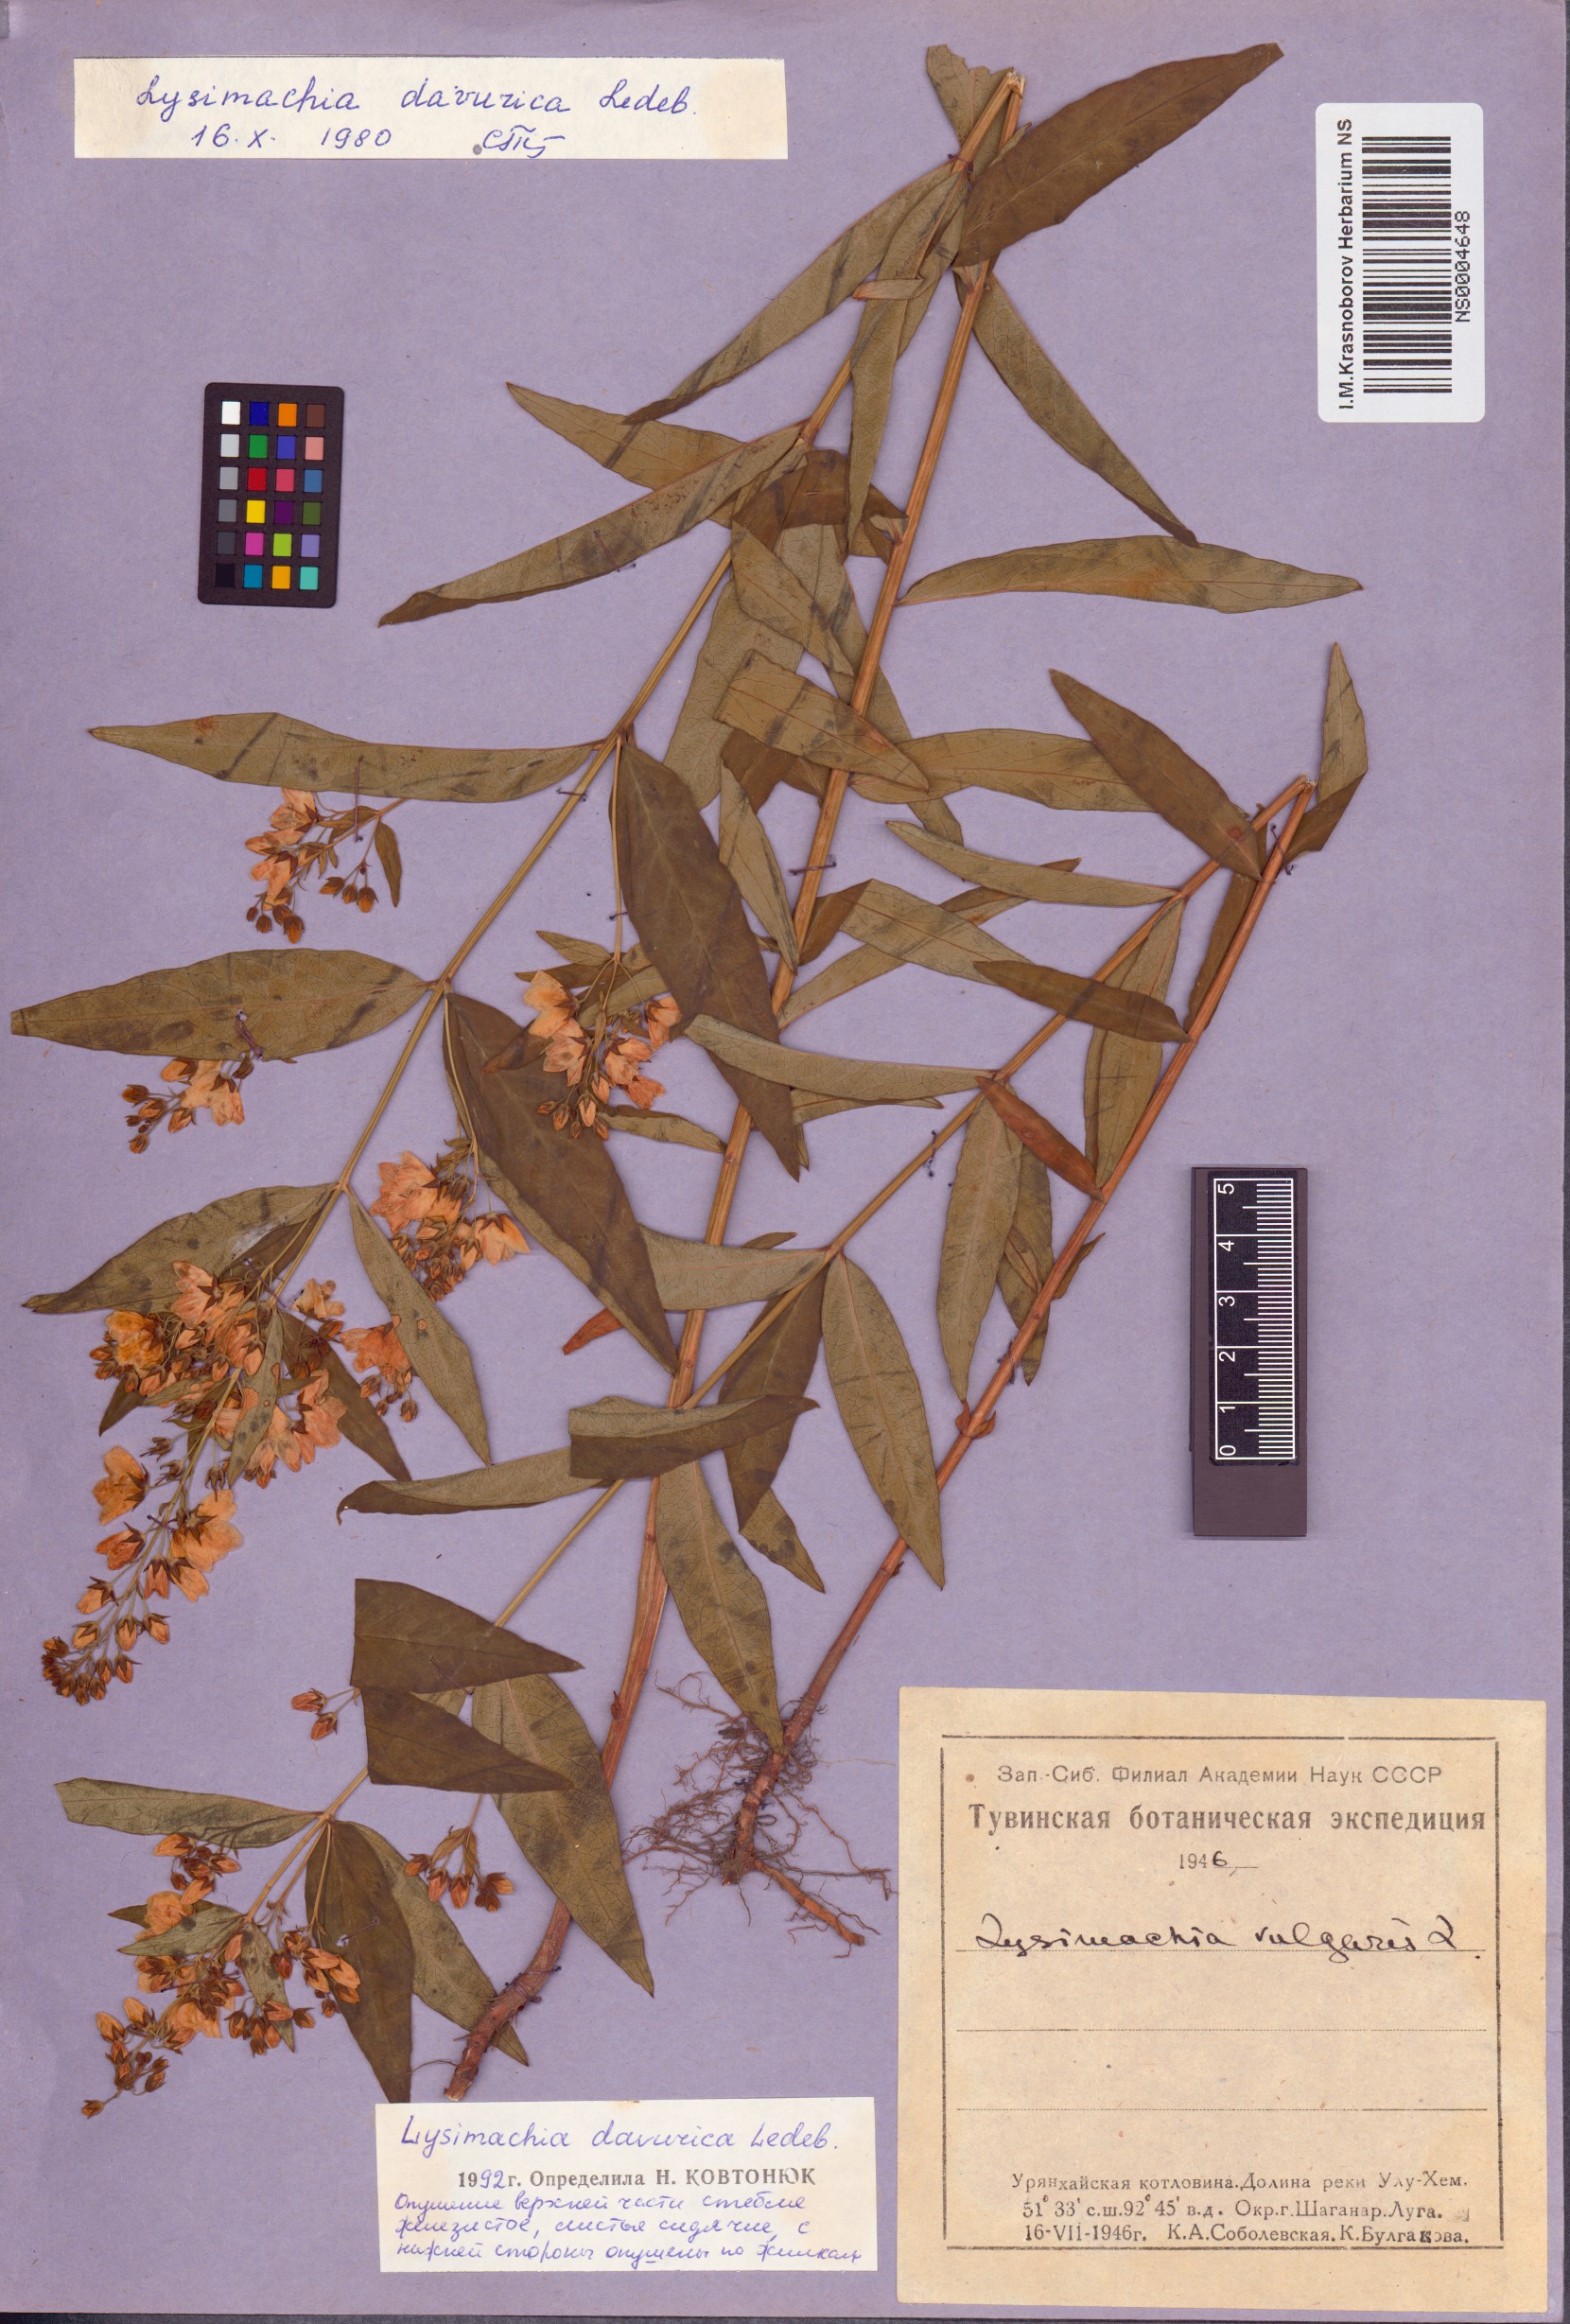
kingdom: Plantae
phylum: Tracheophyta
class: Magnoliopsida
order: Ericales
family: Primulaceae
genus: Lysimachia
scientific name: Lysimachia davurica
